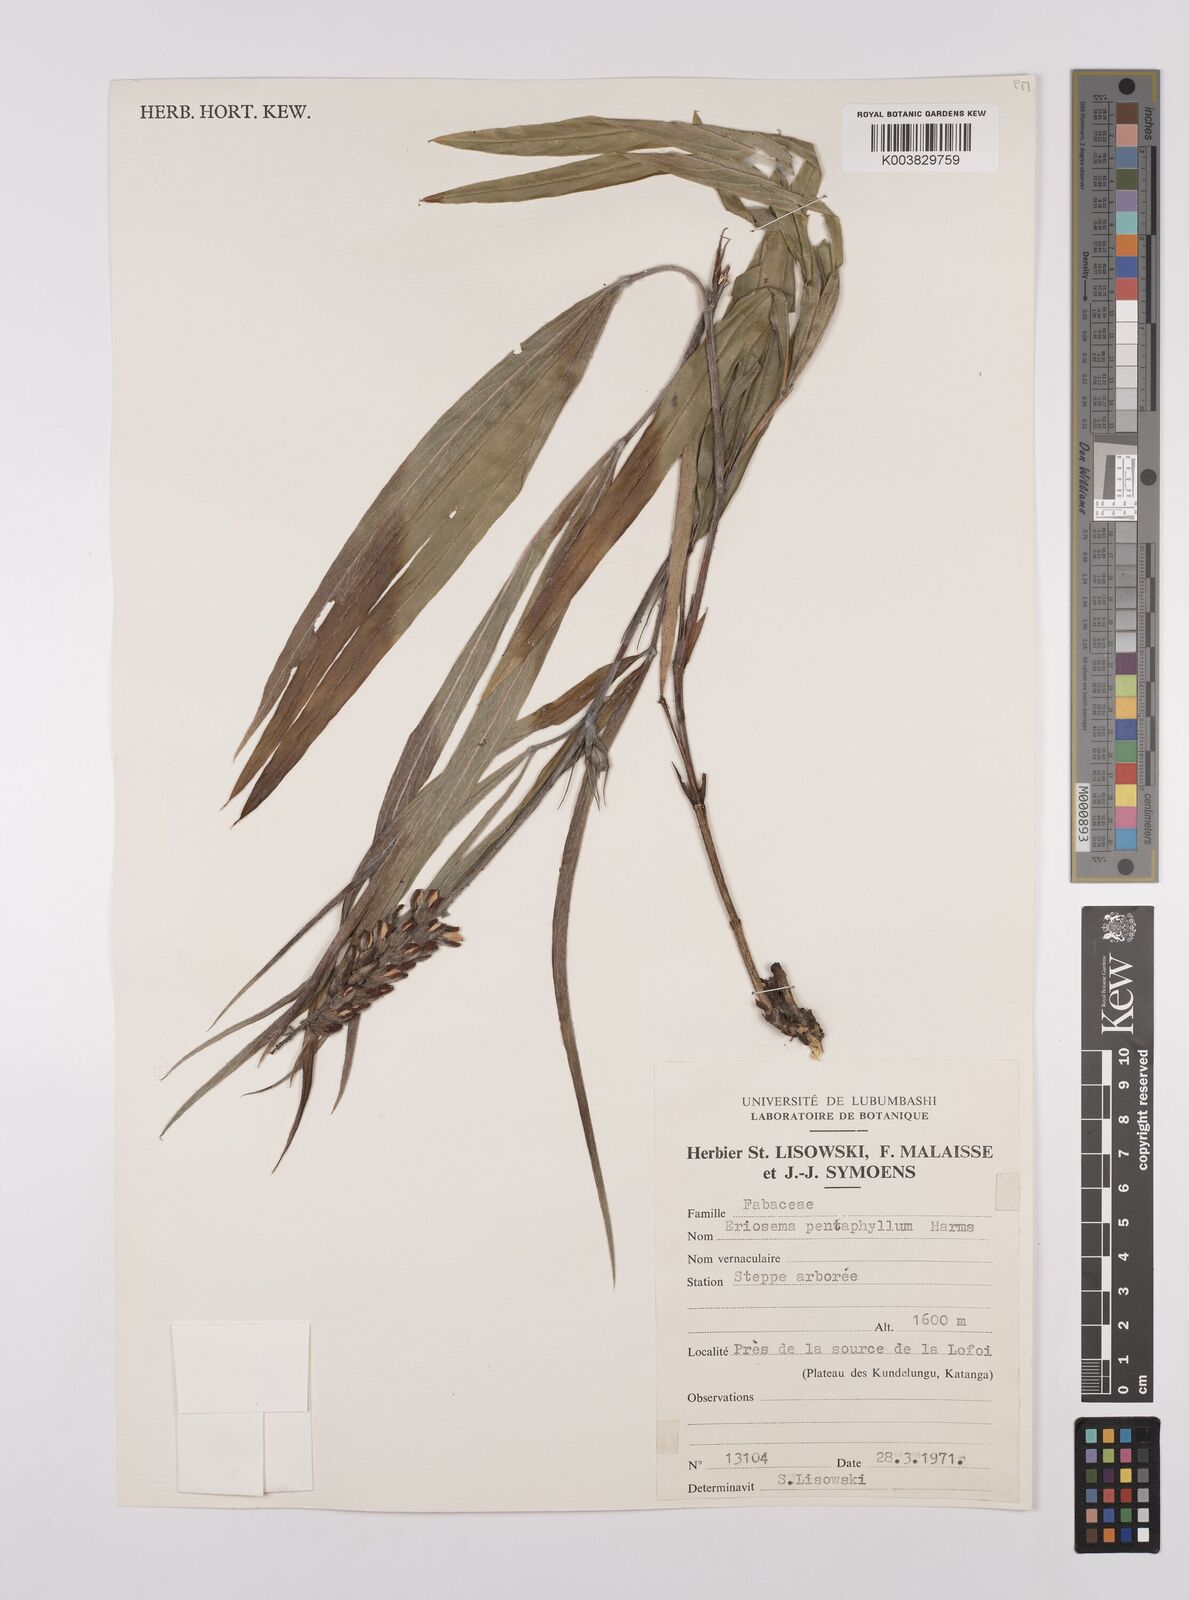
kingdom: Plantae
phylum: Tracheophyta
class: Magnoliopsida
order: Fabales
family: Fabaceae
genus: Eriosema
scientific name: Eriosema pentaphyllum
